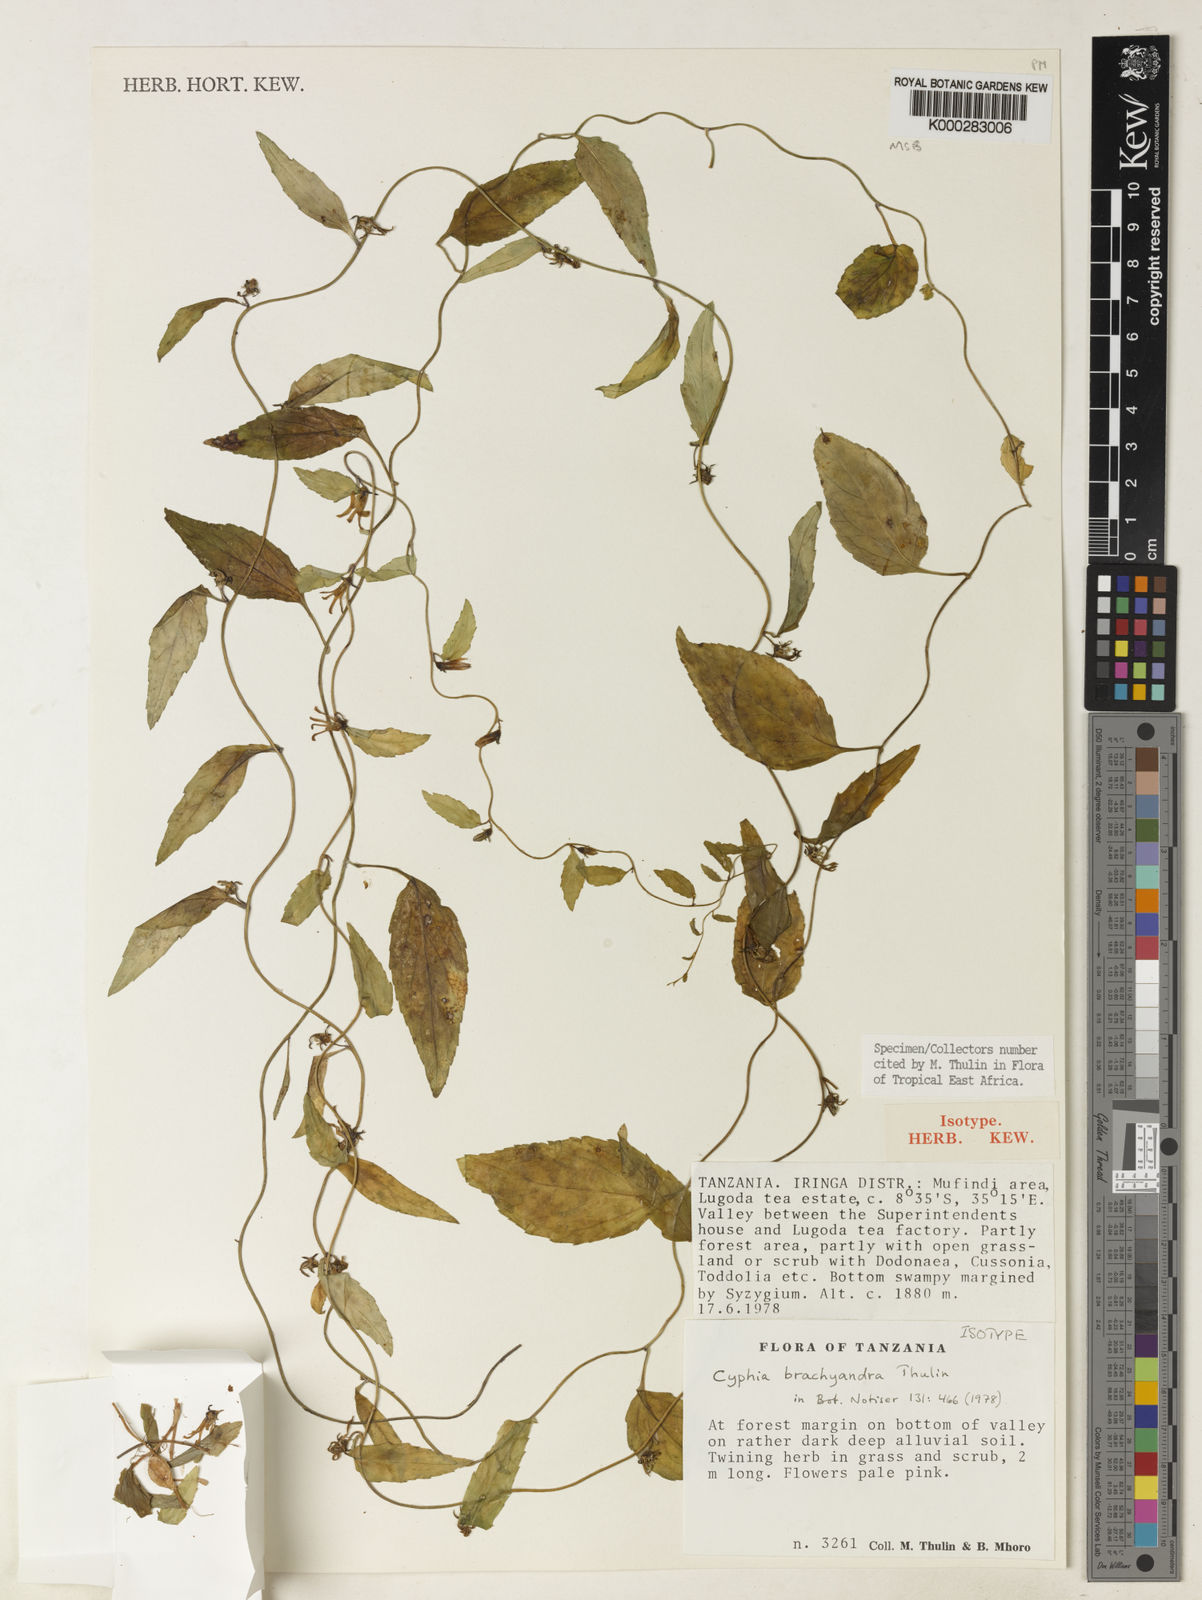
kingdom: Plantae
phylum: Tracheophyta
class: Magnoliopsida
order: Asterales
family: Campanulaceae
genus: Cyphia
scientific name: Cyphia brachyandra
